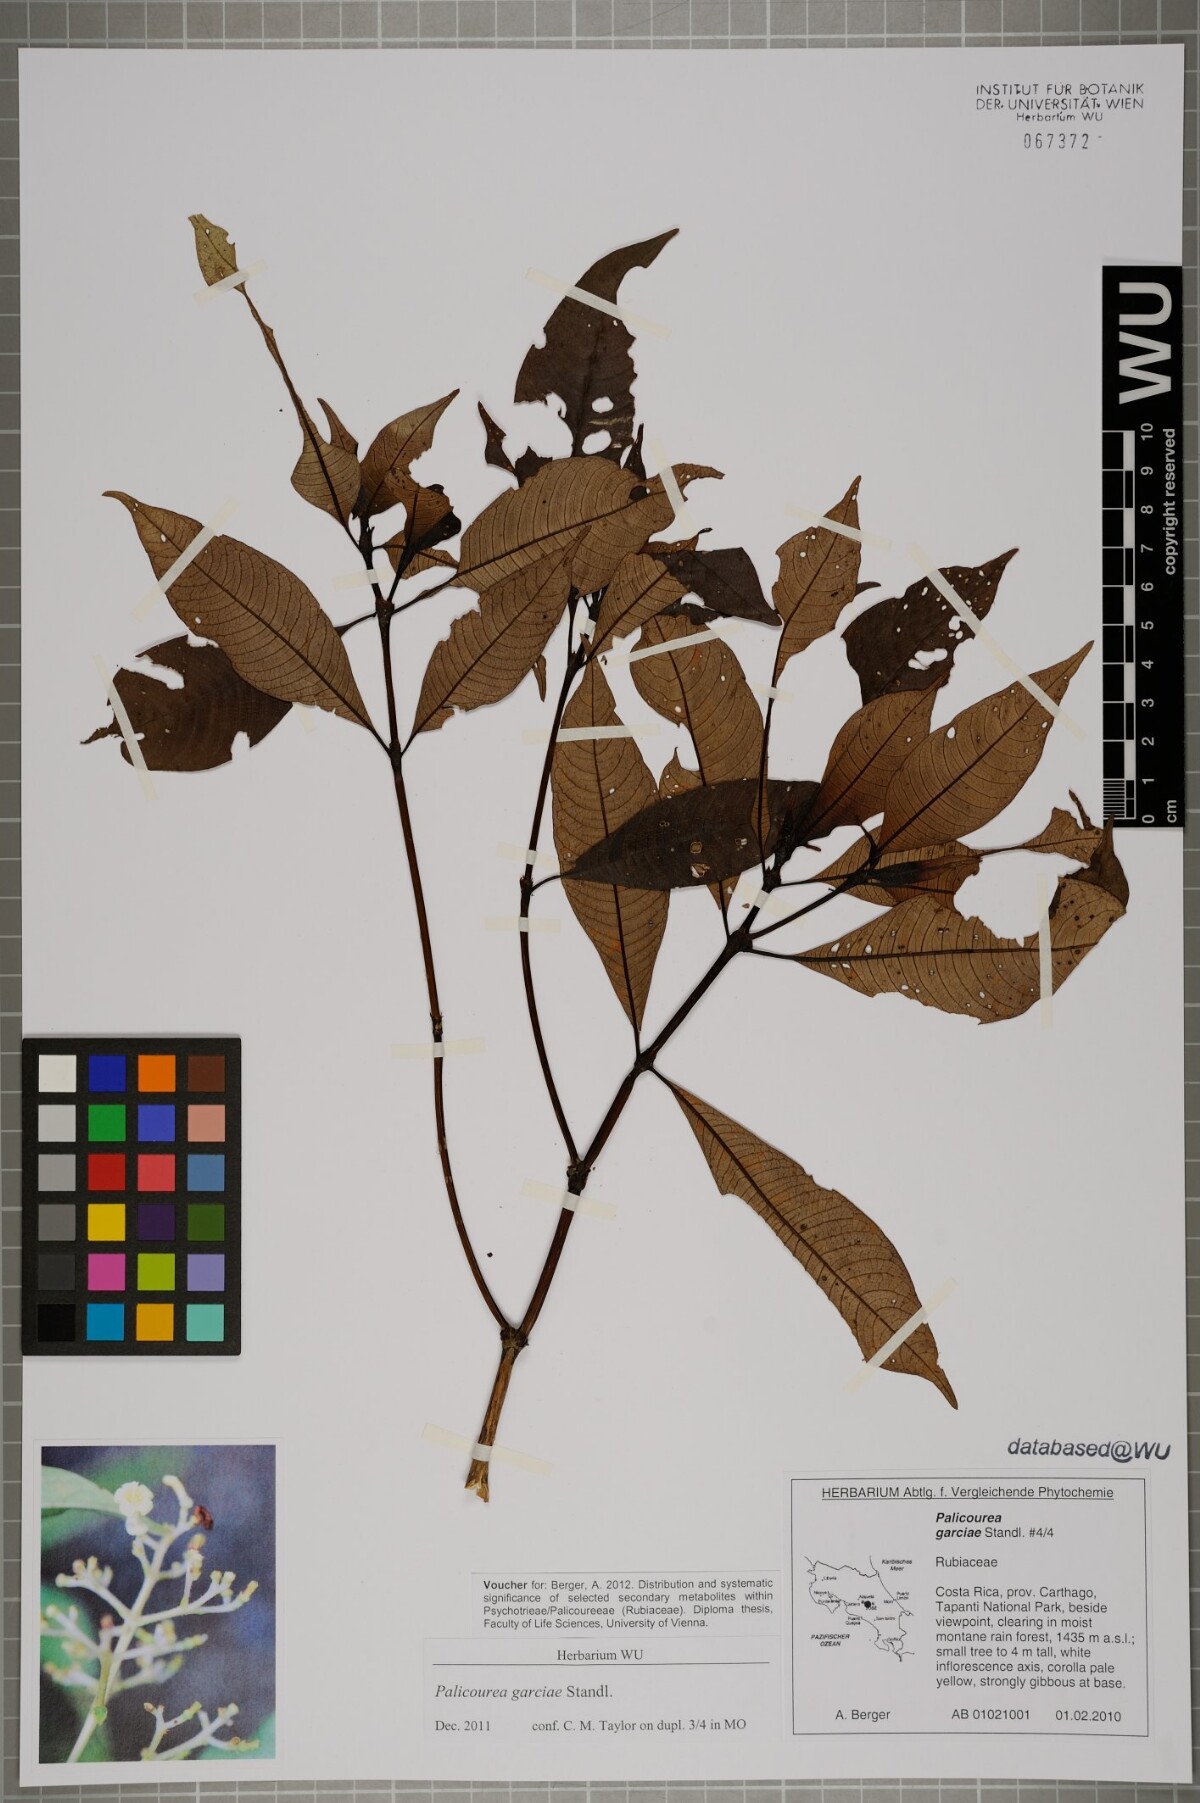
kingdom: Plantae
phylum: Tracheophyta
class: Magnoliopsida
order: Gentianales
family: Rubiaceae
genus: Palicourea
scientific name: Palicourea garciae
